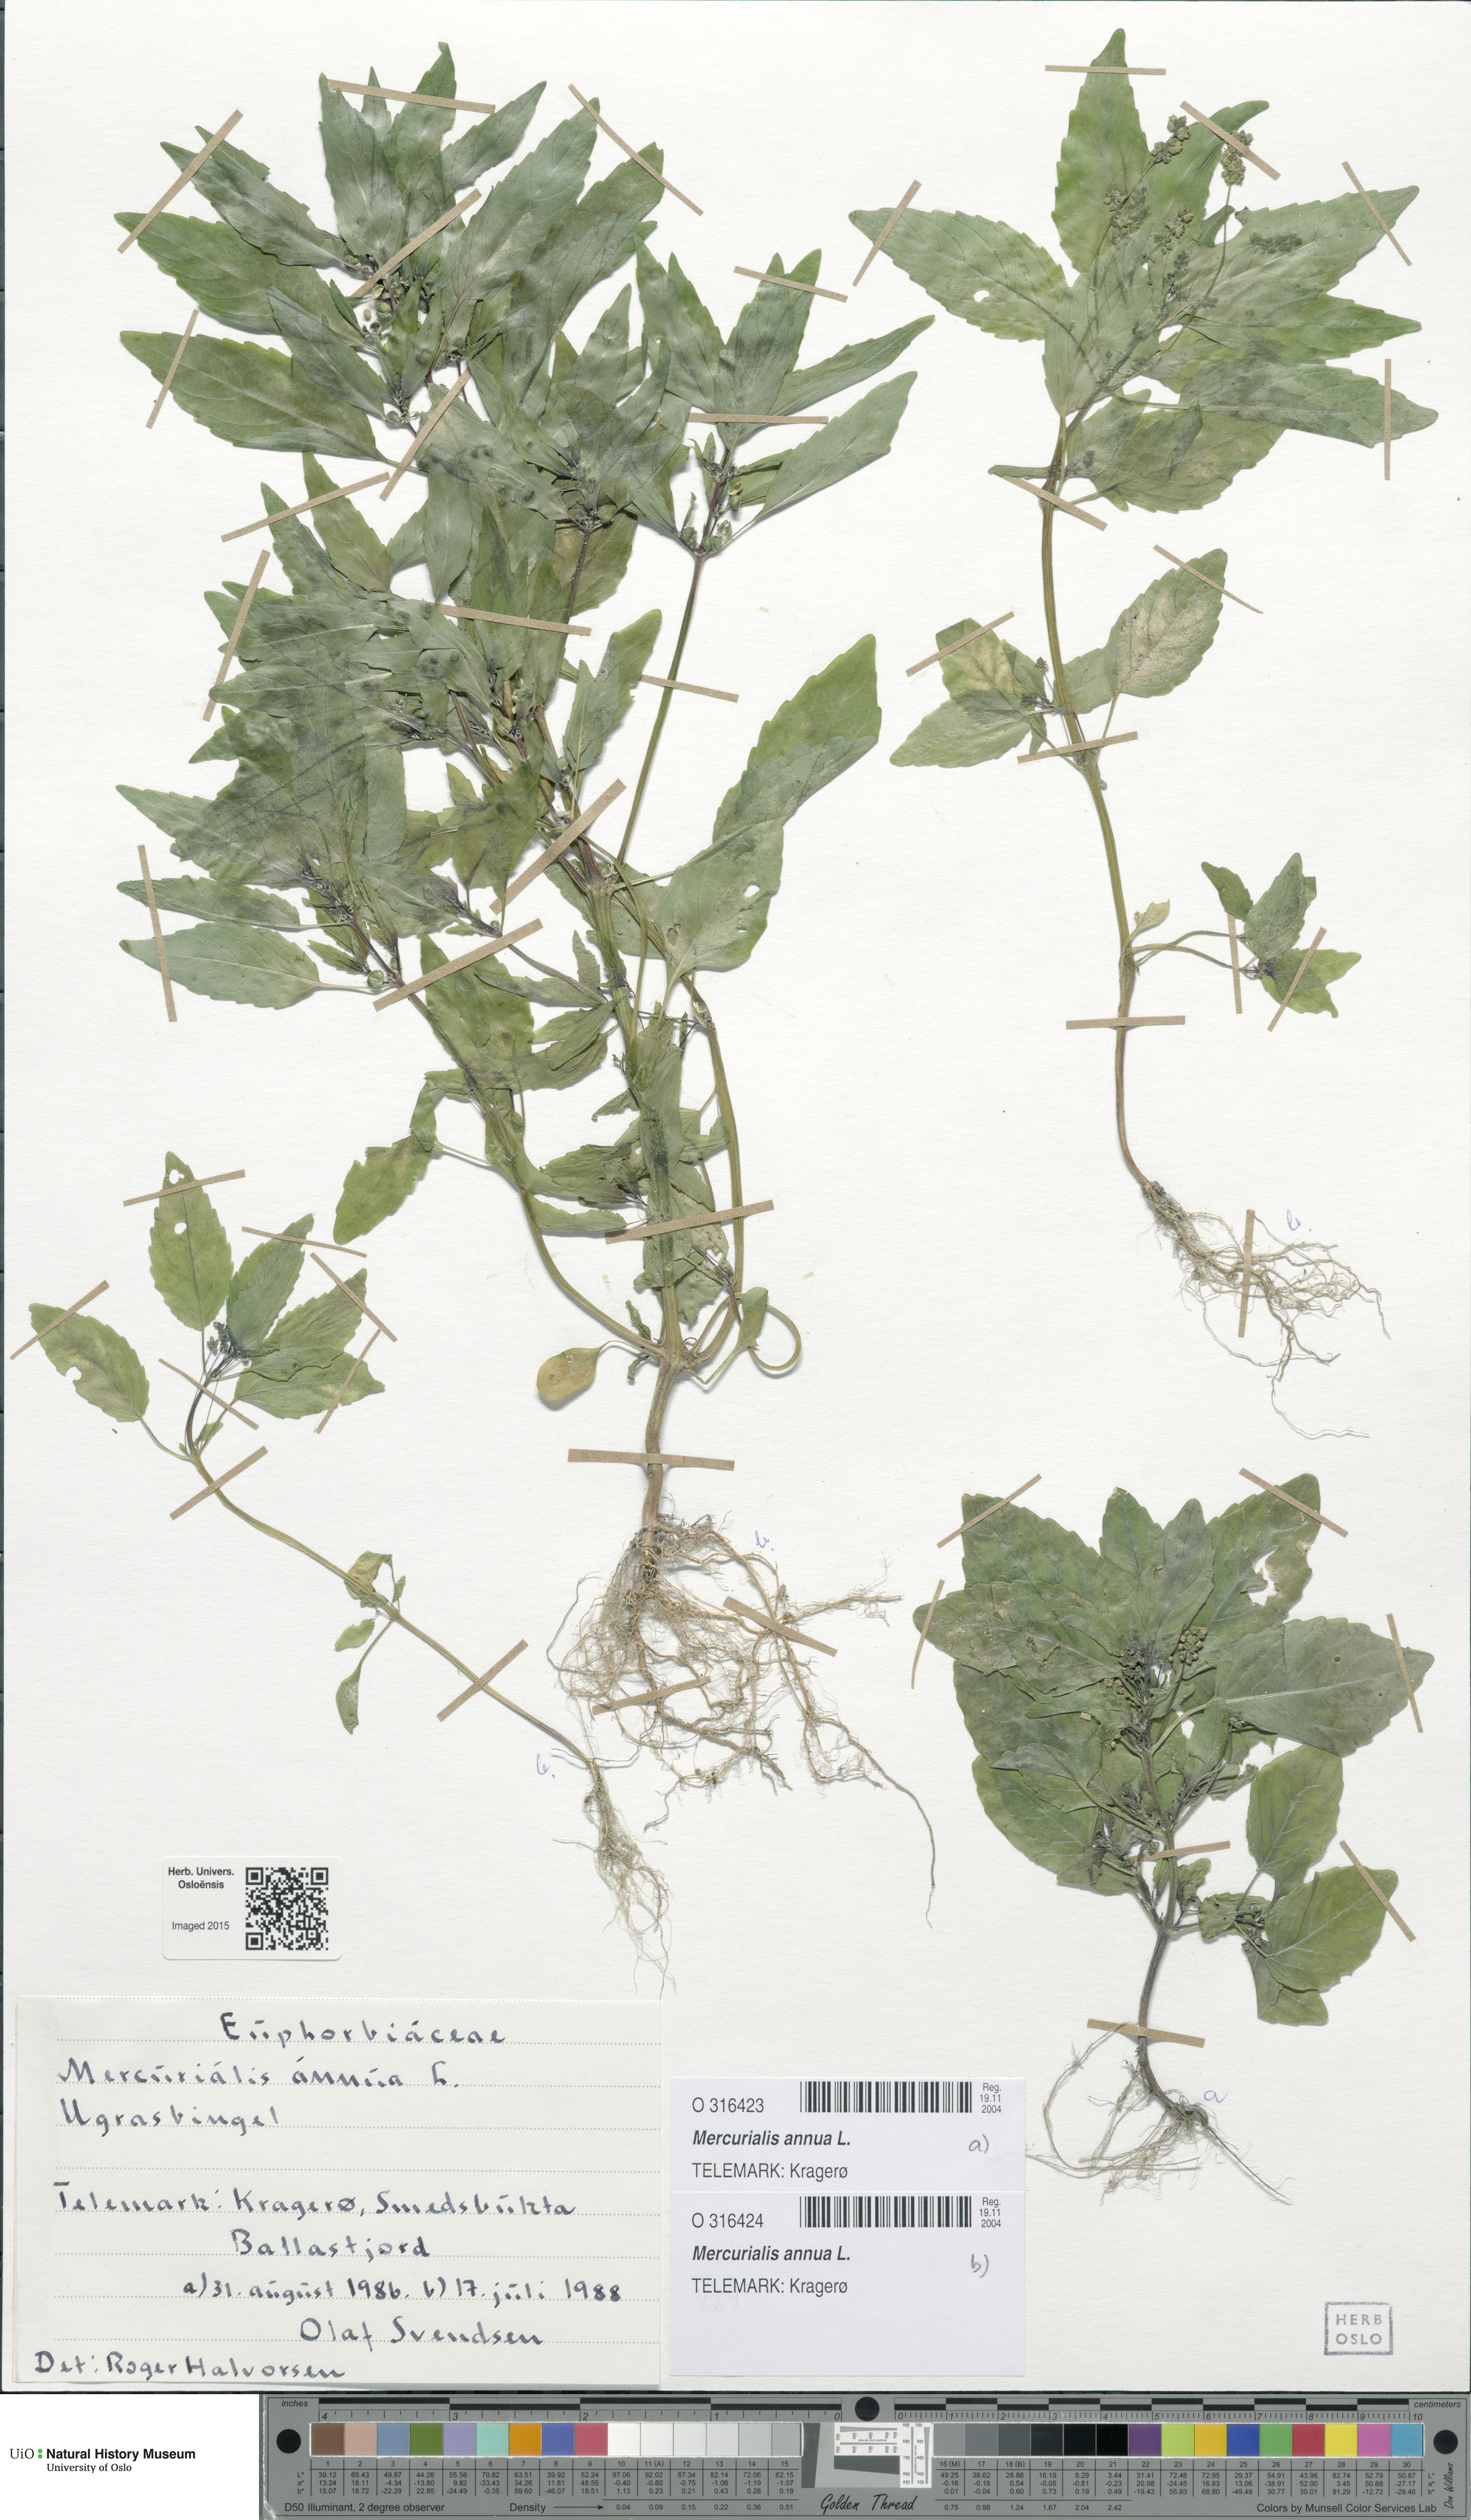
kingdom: Plantae
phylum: Tracheophyta
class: Magnoliopsida
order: Malpighiales
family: Euphorbiaceae
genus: Mercurialis
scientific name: Mercurialis annua
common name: Annual mercury
